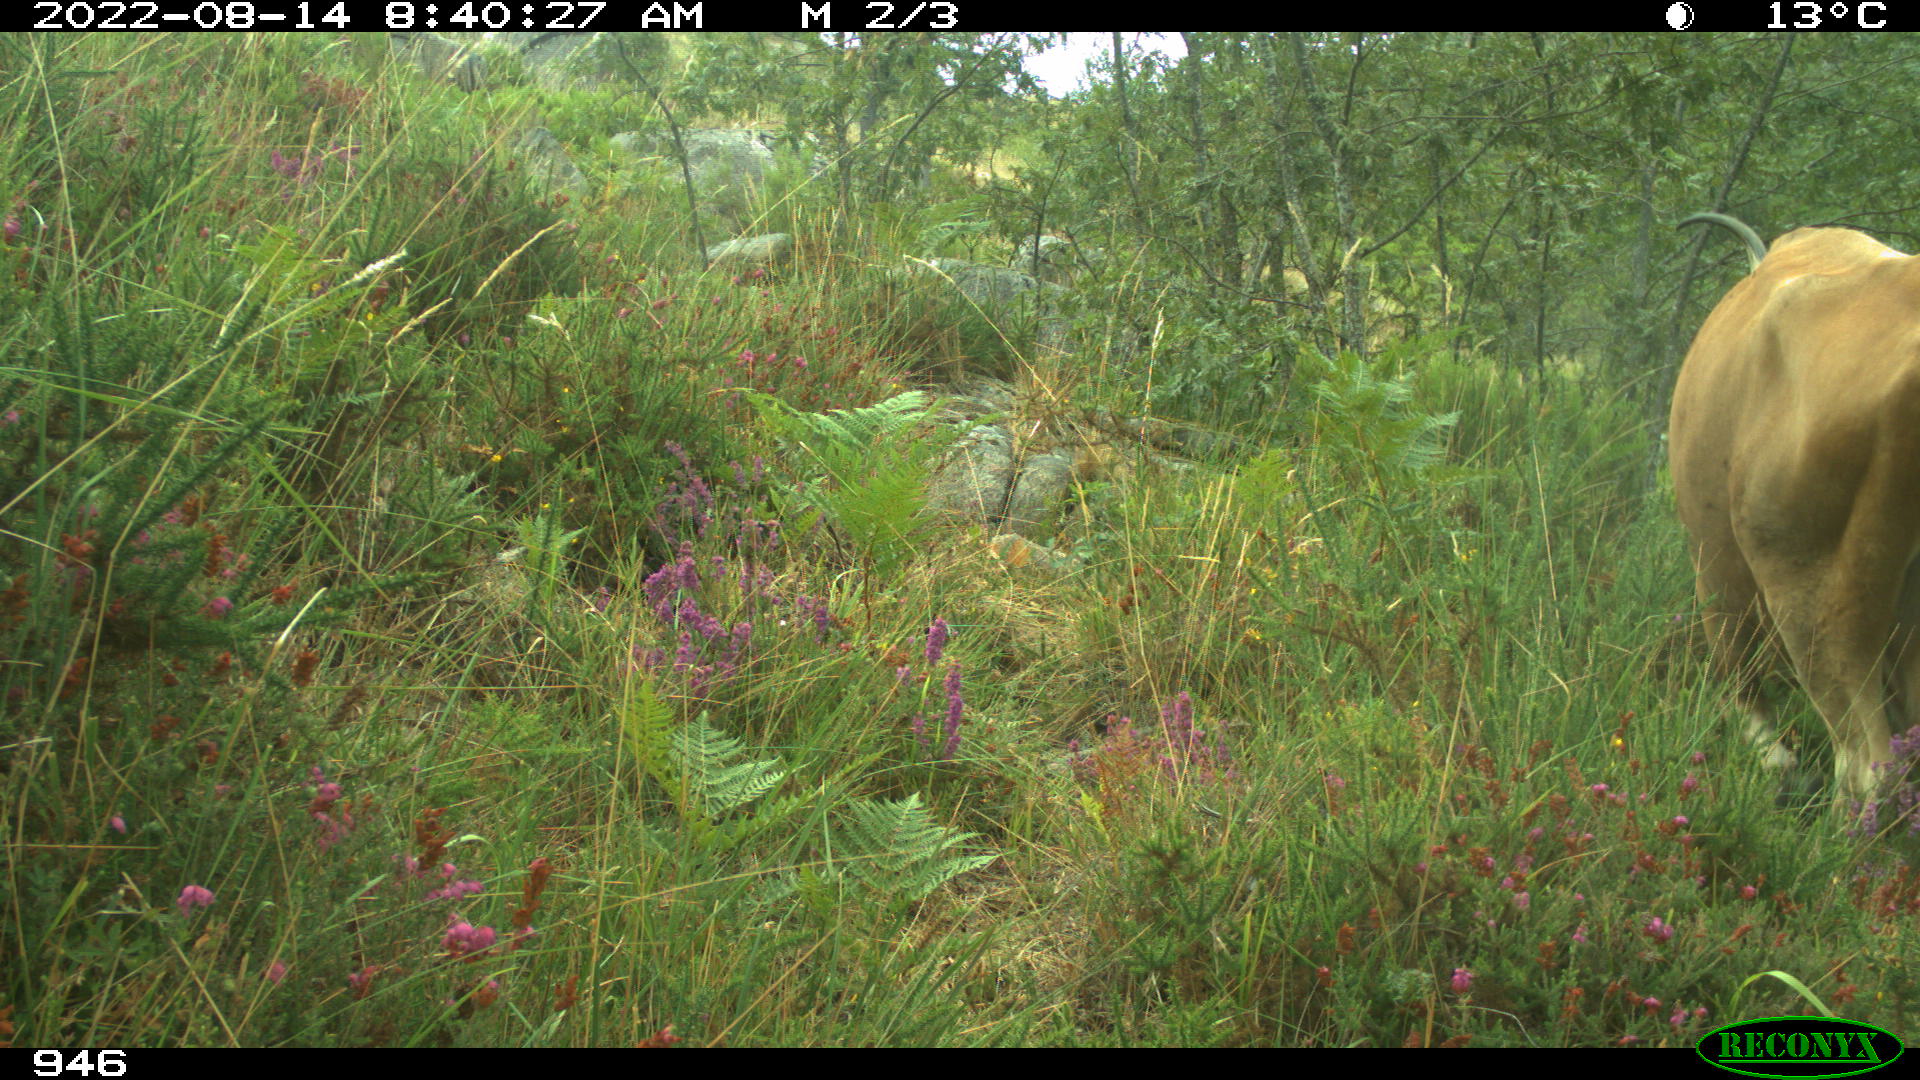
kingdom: Animalia
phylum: Chordata
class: Mammalia
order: Artiodactyla
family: Bovidae
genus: Bos
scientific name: Bos taurus
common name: Domesticated cattle
